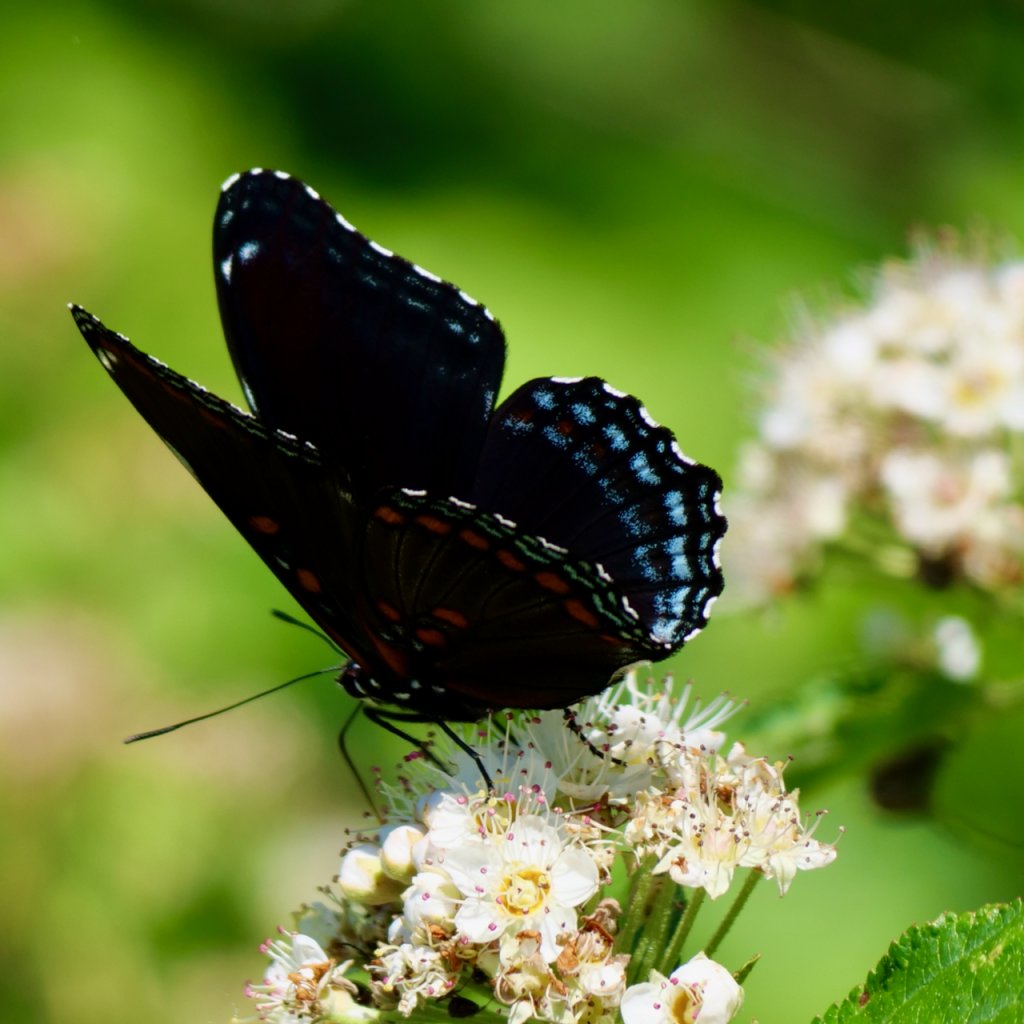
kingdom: Animalia
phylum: Arthropoda
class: Insecta
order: Lepidoptera
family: Nymphalidae
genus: Limenitis
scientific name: Limenitis arthemis
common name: Red-spotted Admiral
